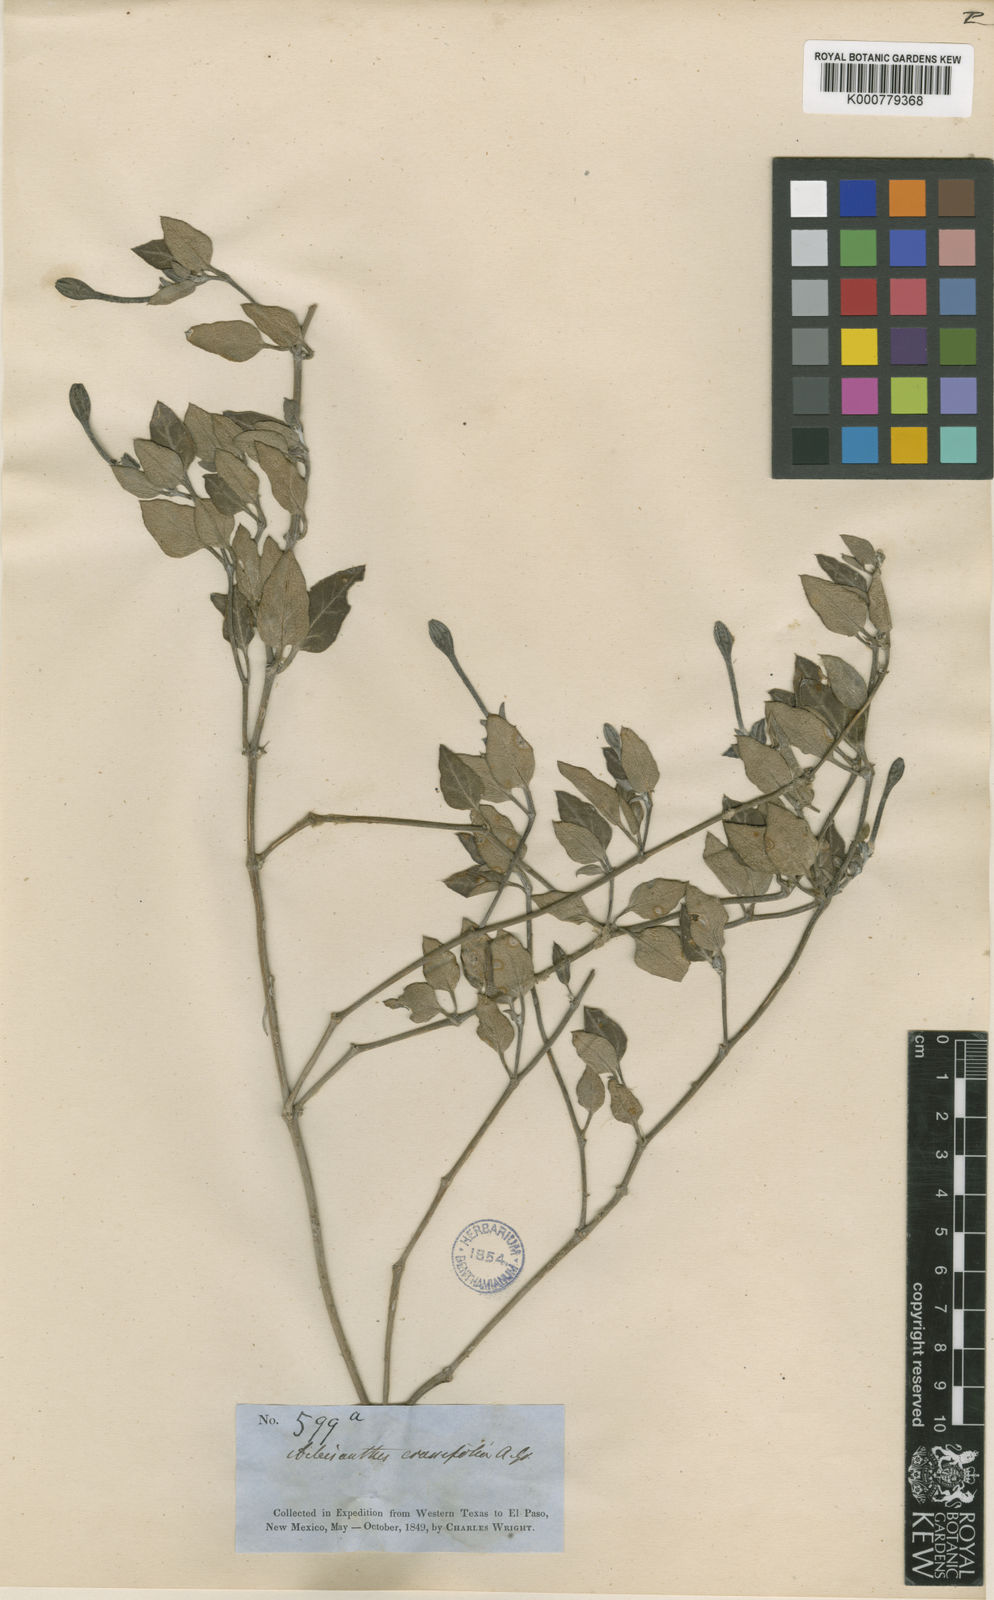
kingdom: Plantae
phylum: Tracheophyta
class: Magnoliopsida
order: Caryophyllales
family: Nyctaginaceae
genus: Acleisanthes
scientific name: Acleisanthes crassifolia
